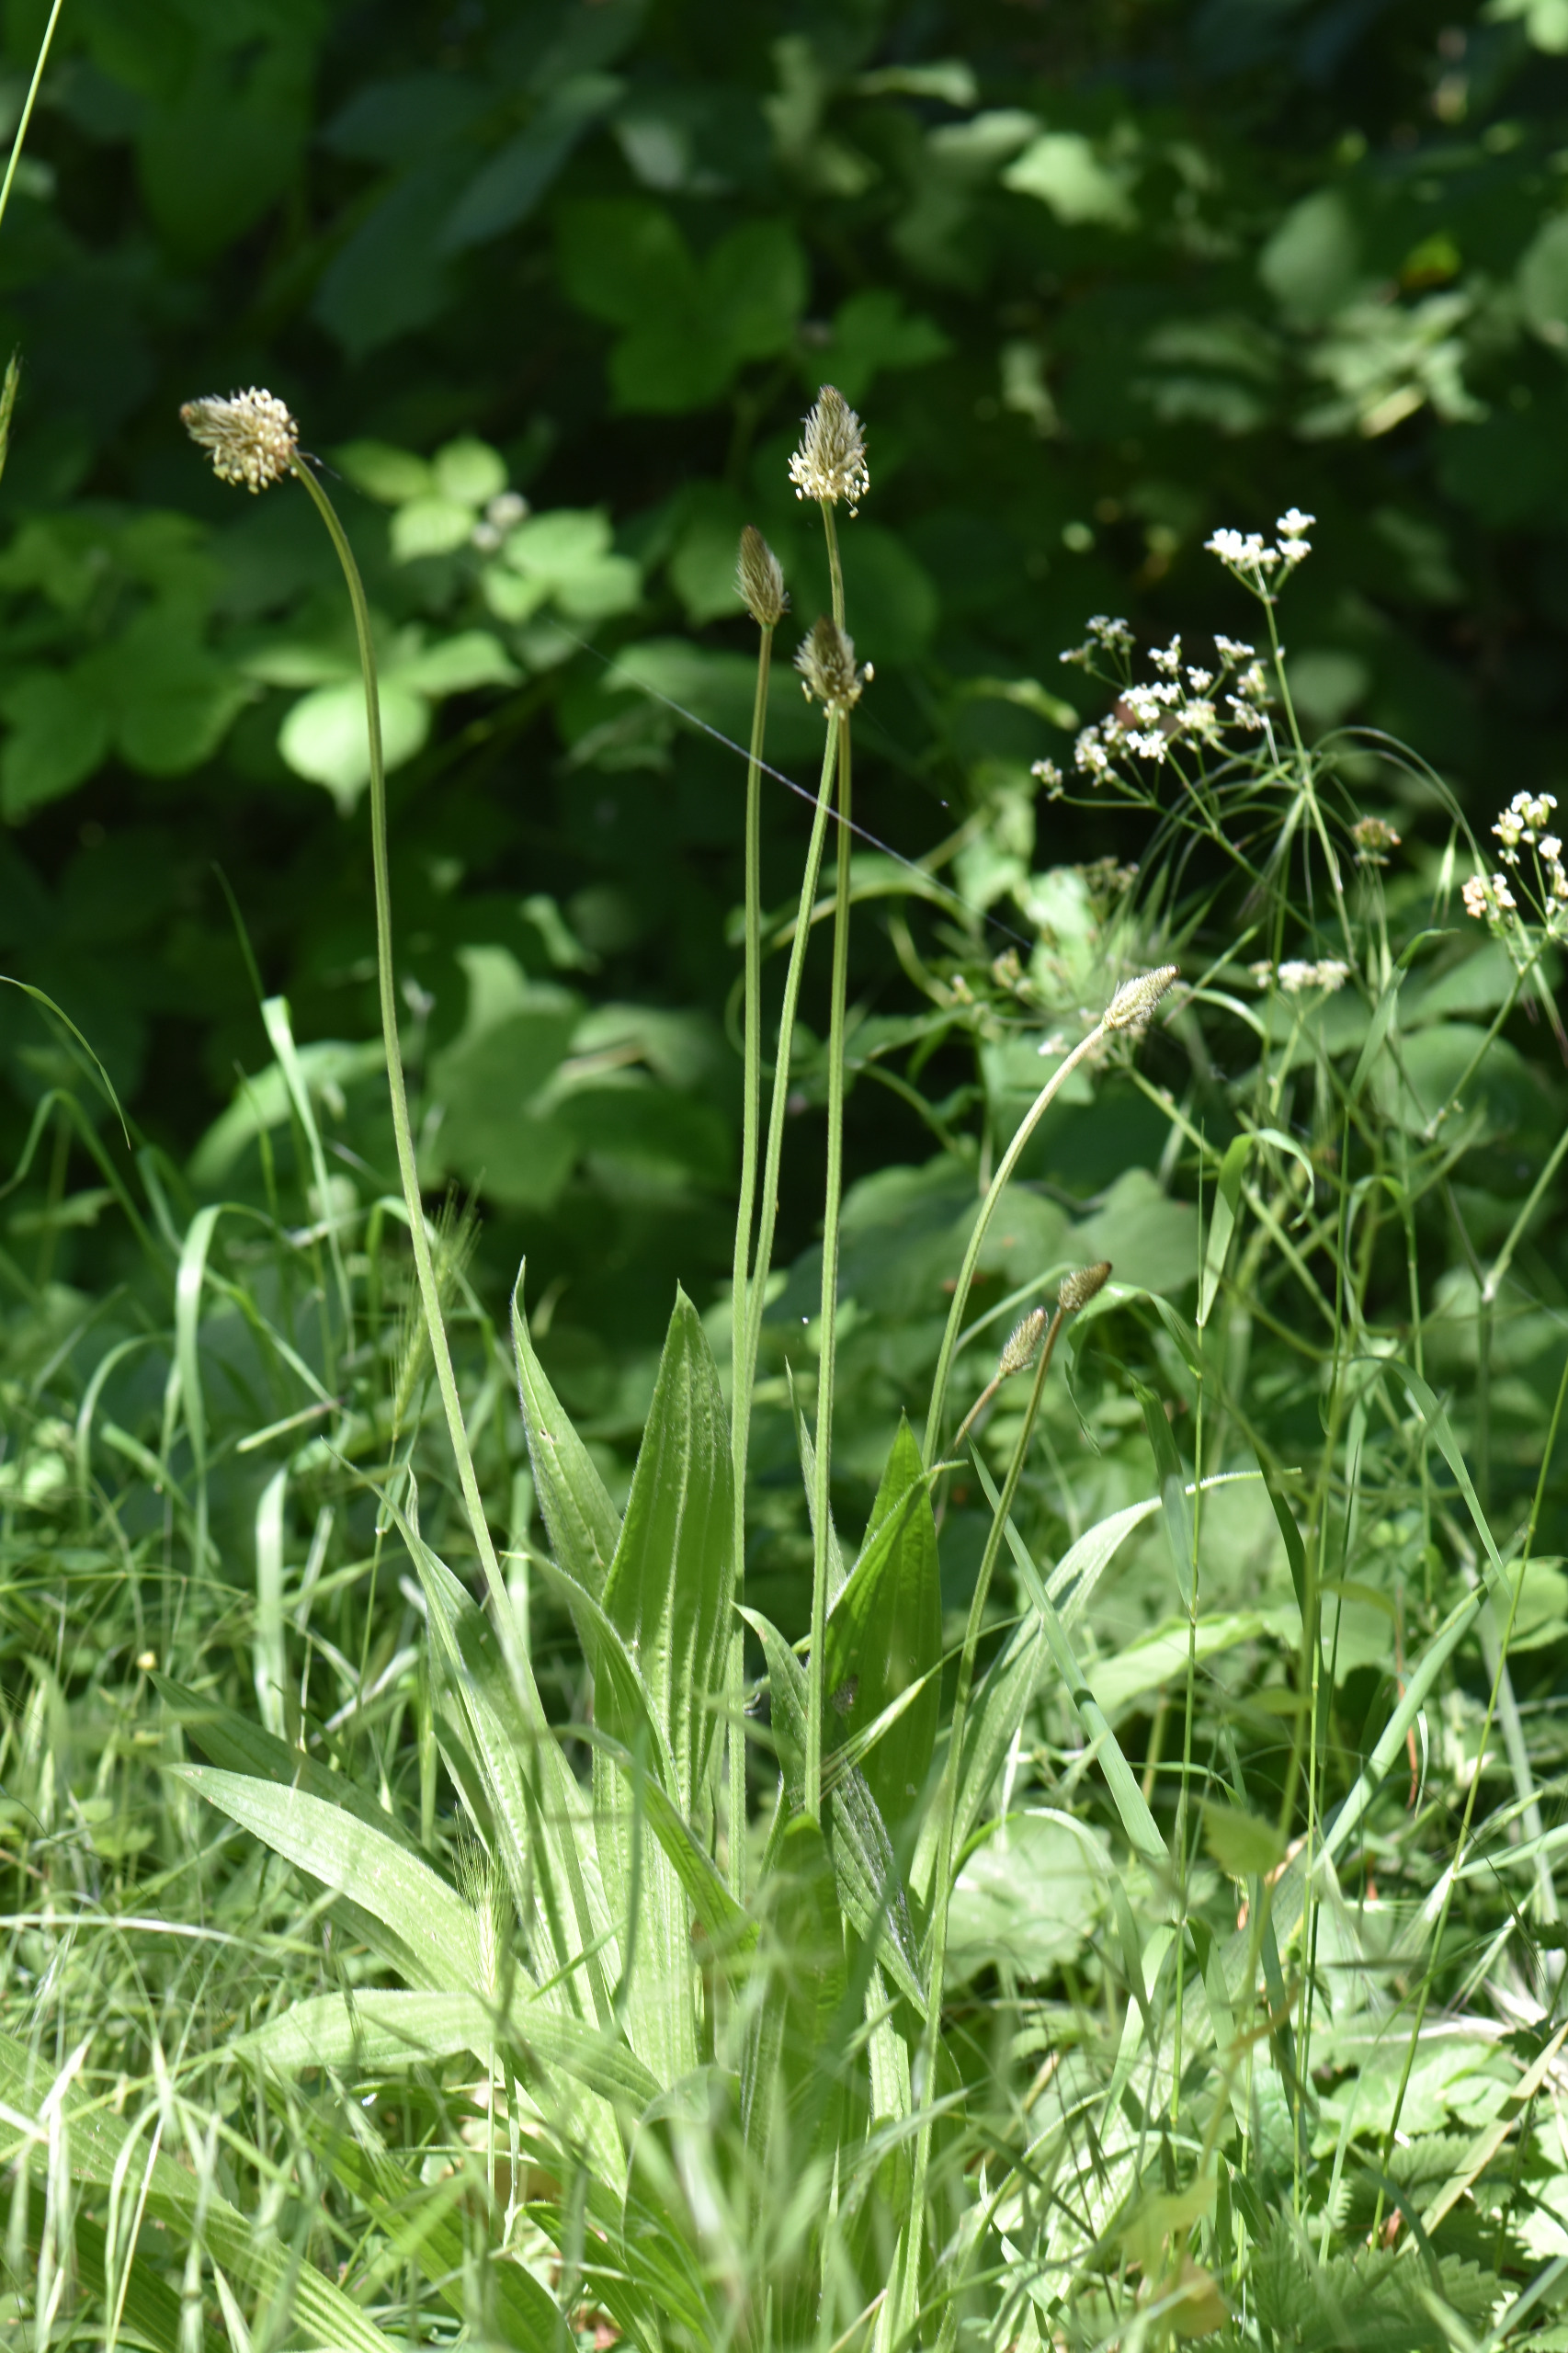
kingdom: Plantae
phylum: Tracheophyta
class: Magnoliopsida
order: Lamiales
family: Plantaginaceae
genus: Plantago
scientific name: Plantago lanceolata
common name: Lancet-vejbred
